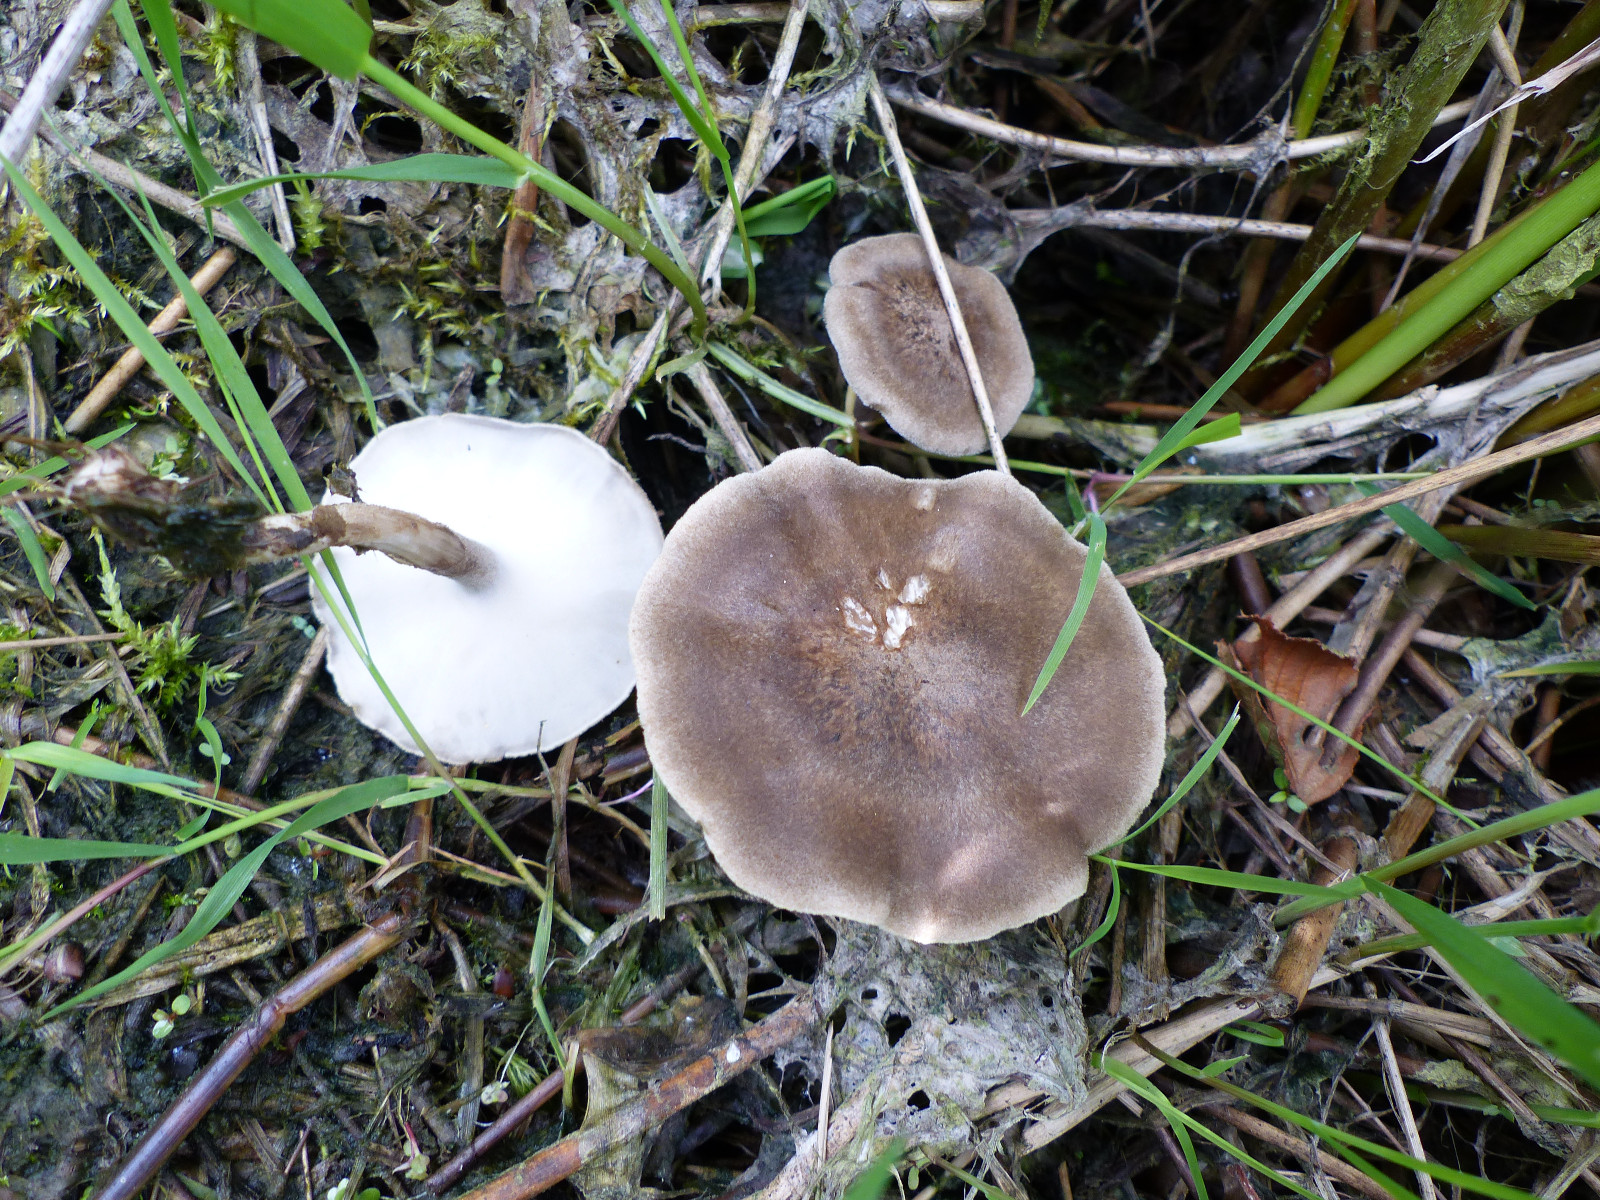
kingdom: Fungi
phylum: Basidiomycota
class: Agaricomycetes
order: Polyporales
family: Polyporaceae
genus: Lentinus
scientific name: Lentinus substrictus
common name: forårs-stilkporesvamp
